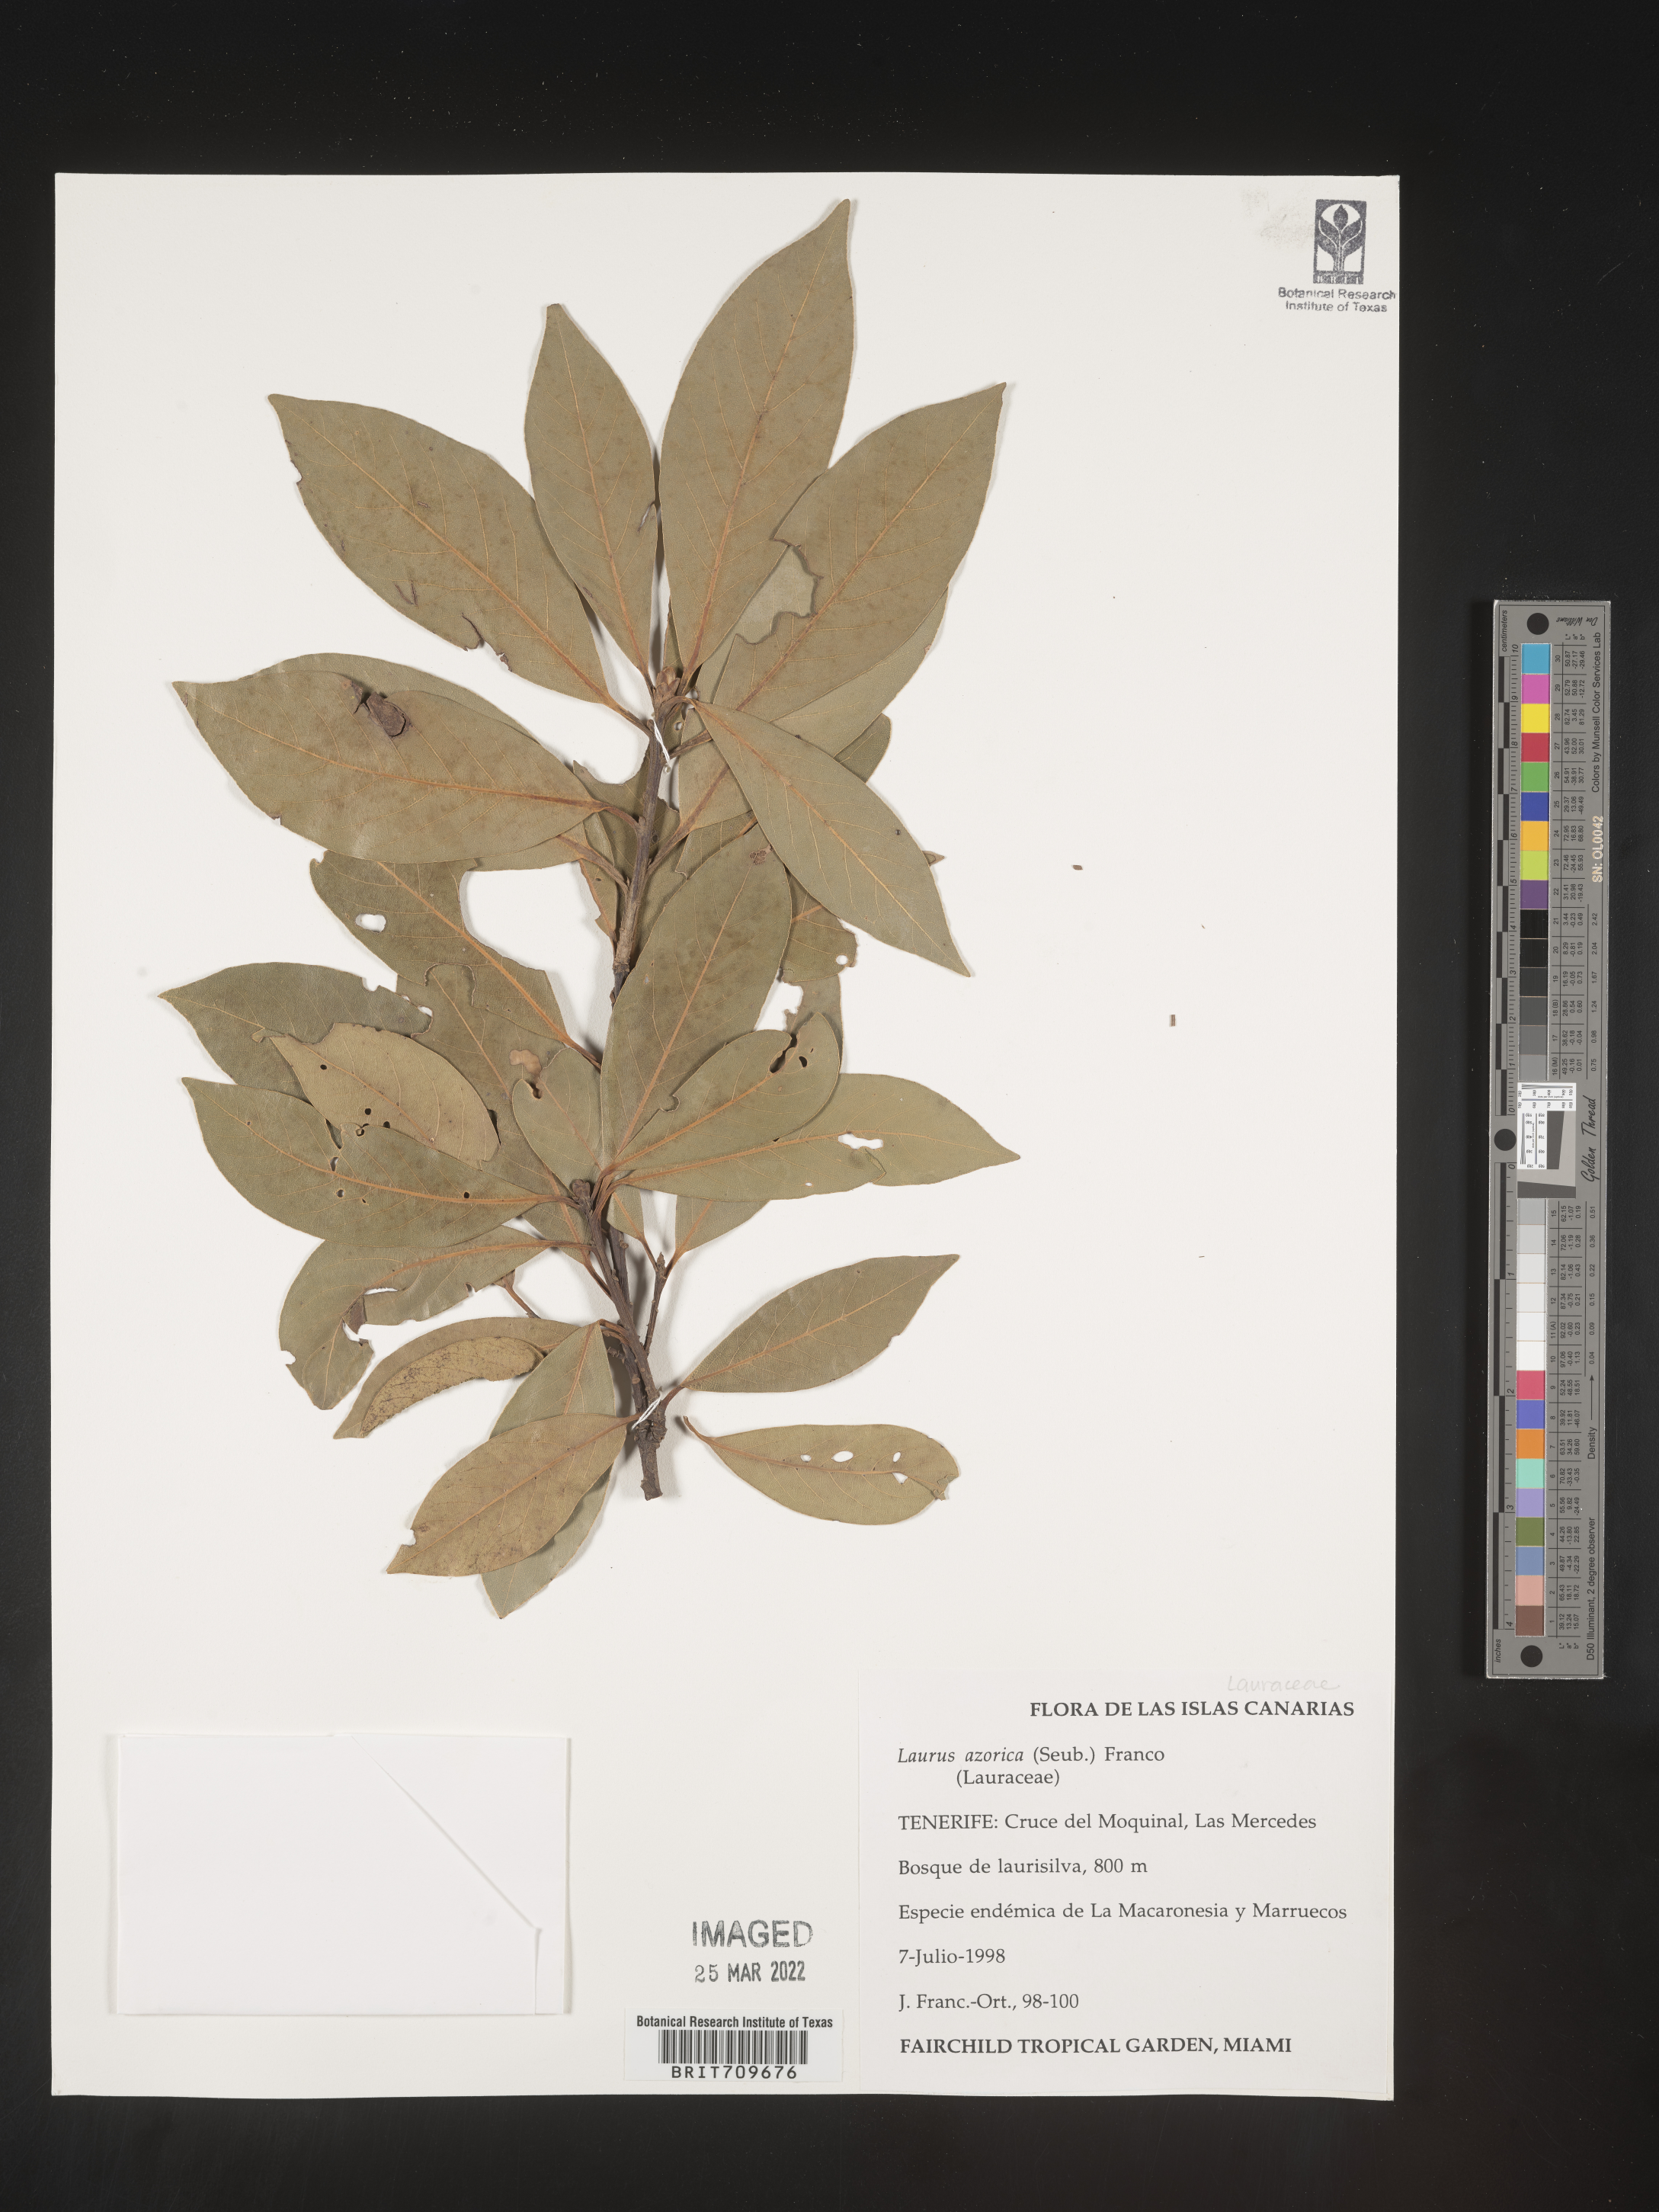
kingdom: Plantae
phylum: Tracheophyta
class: Magnoliopsida
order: Laurales
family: Lauraceae
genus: Laurus
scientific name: Laurus
